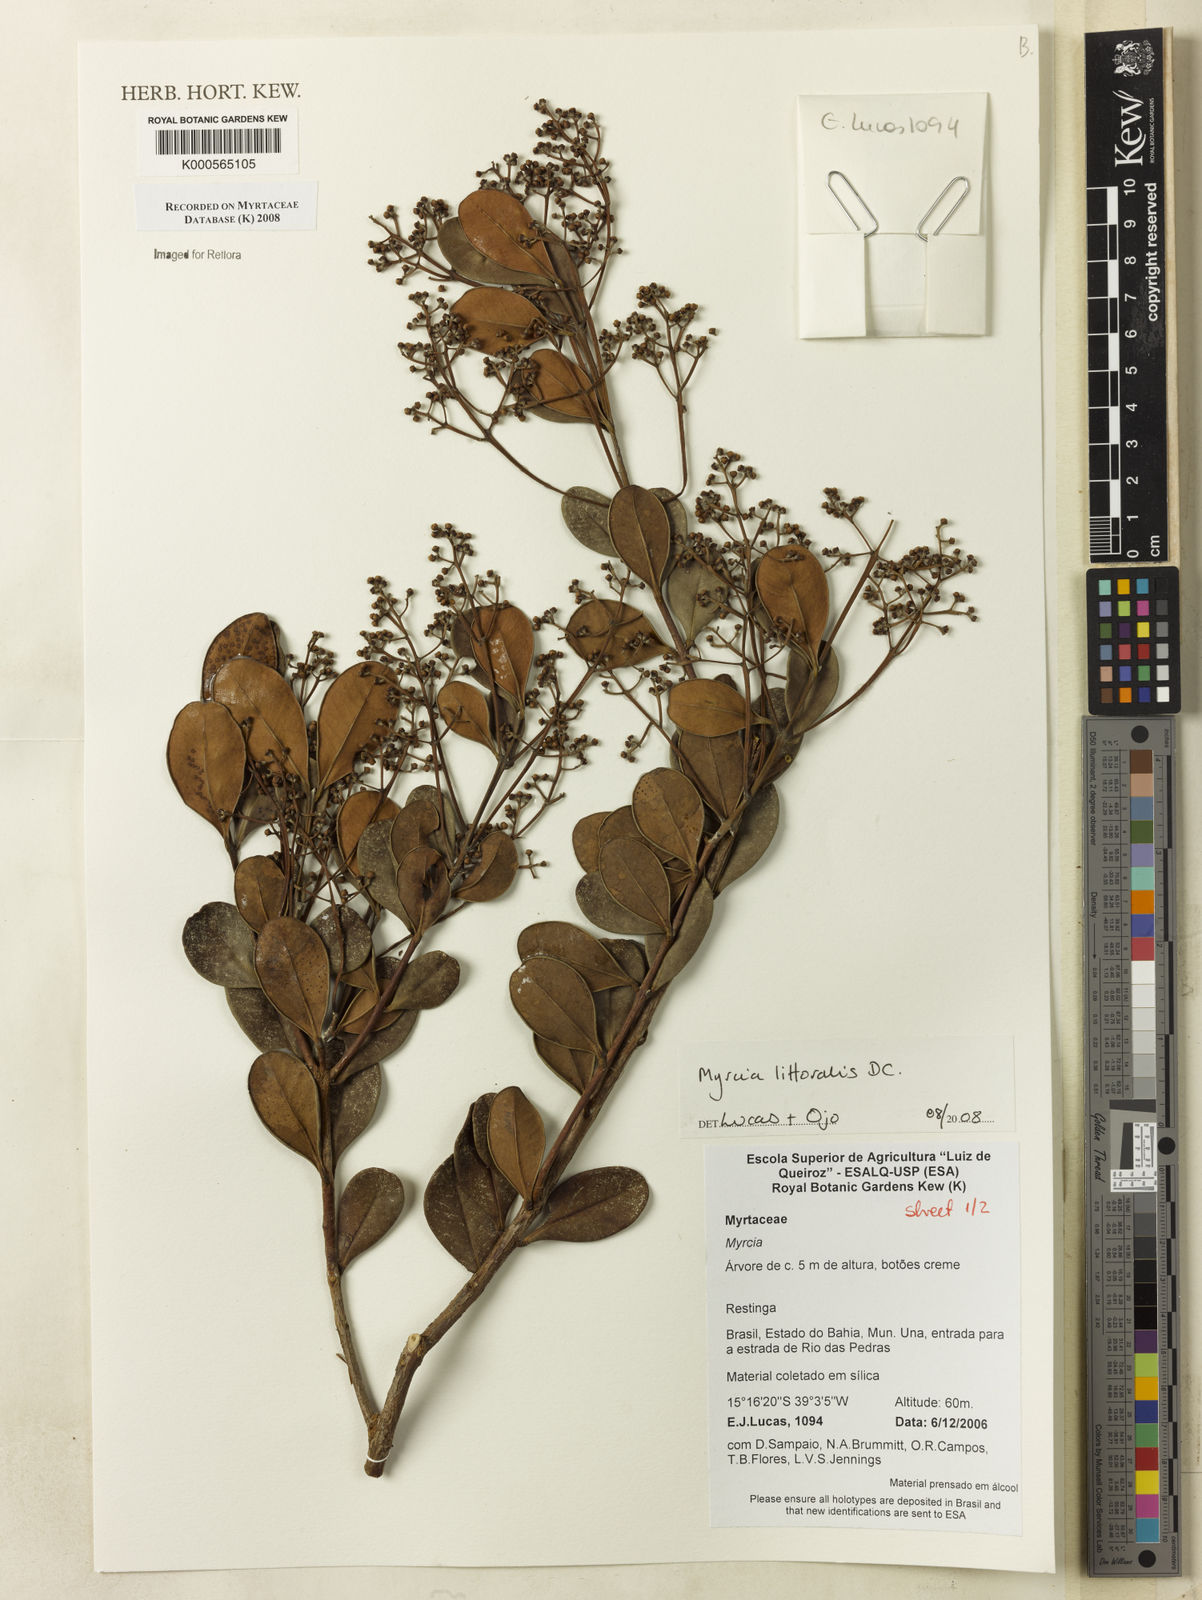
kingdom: Plantae
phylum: Tracheophyta
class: Magnoliopsida
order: Myrtales
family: Myrtaceae
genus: Myrcia
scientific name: Myrcia littoralis
